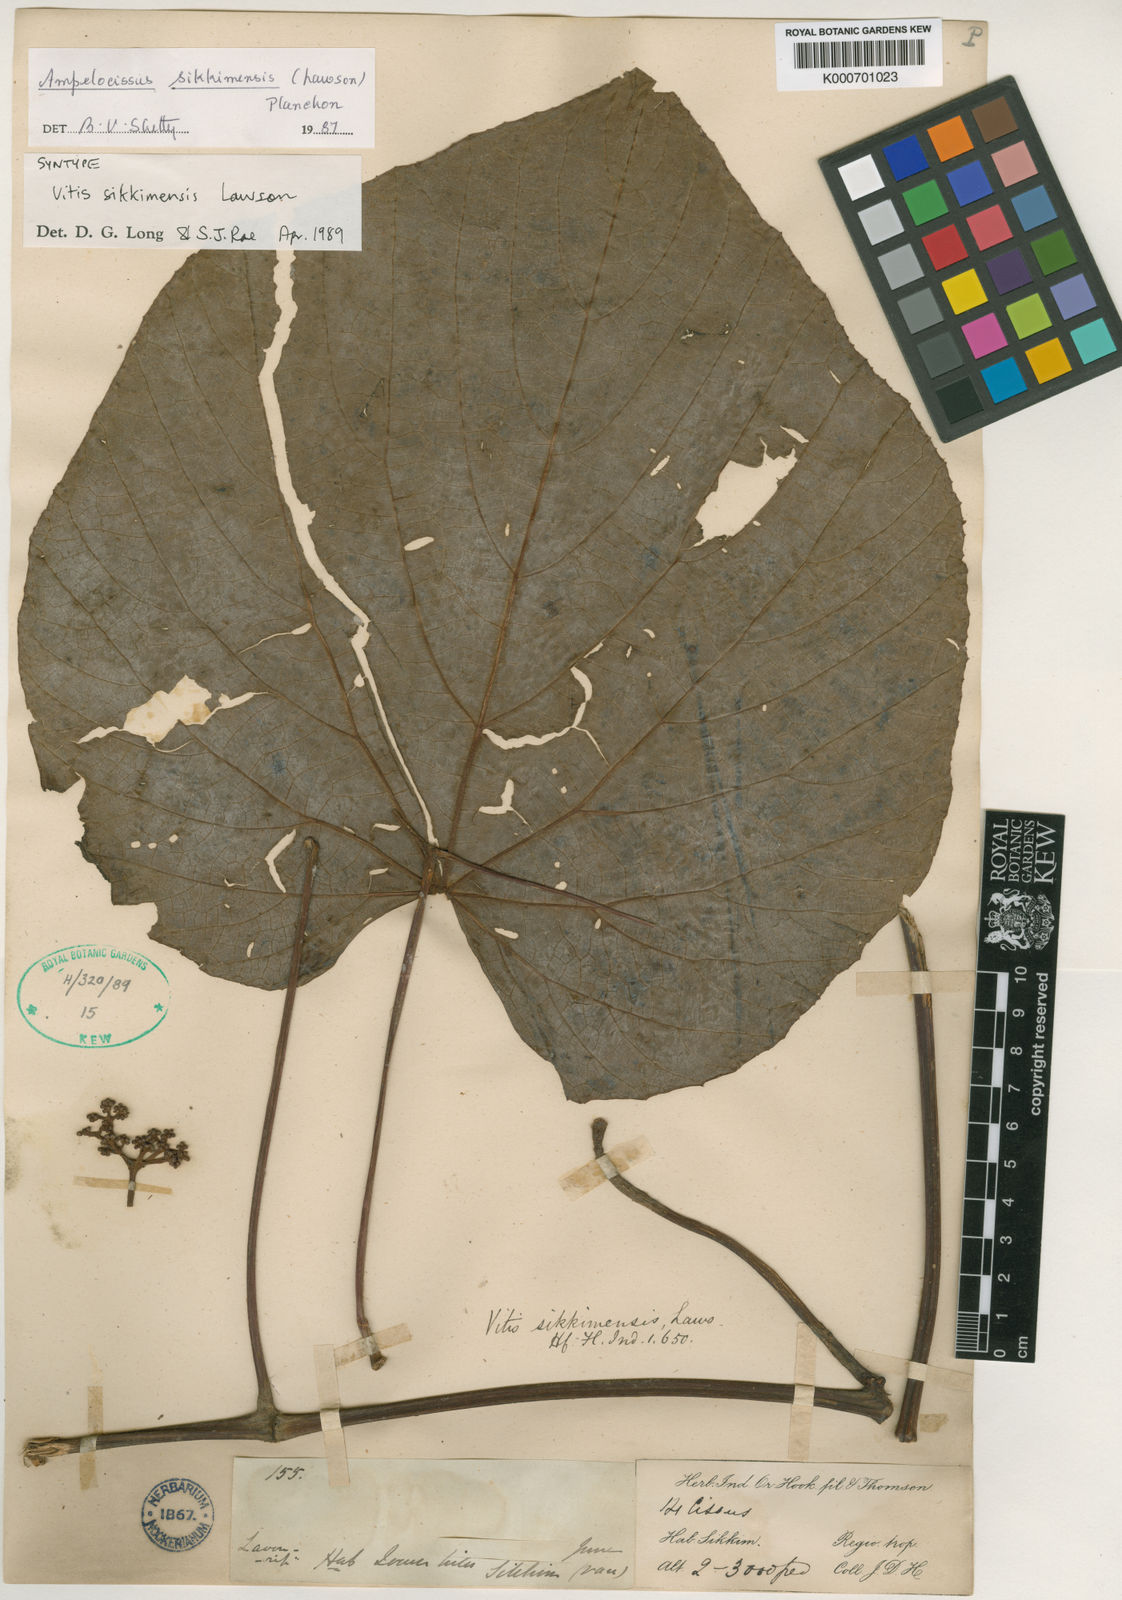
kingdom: Plantae
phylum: Tracheophyta
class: Magnoliopsida
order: Vitales
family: Vitaceae
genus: Ampelocissus
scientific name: Ampelocissus sikkimensis
